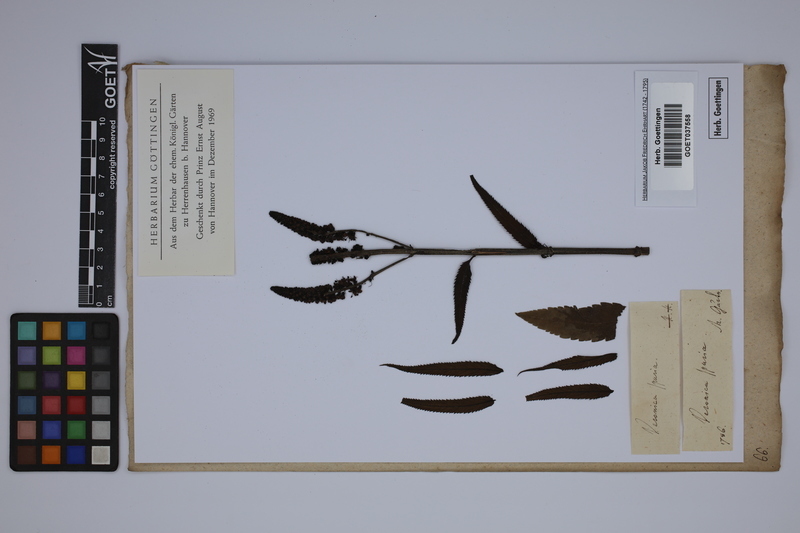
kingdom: Plantae
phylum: Tracheophyta
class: Magnoliopsida
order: Lamiales
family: Plantaginaceae
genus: Veronica
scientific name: Veronica spuria
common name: Bastard speedwell
